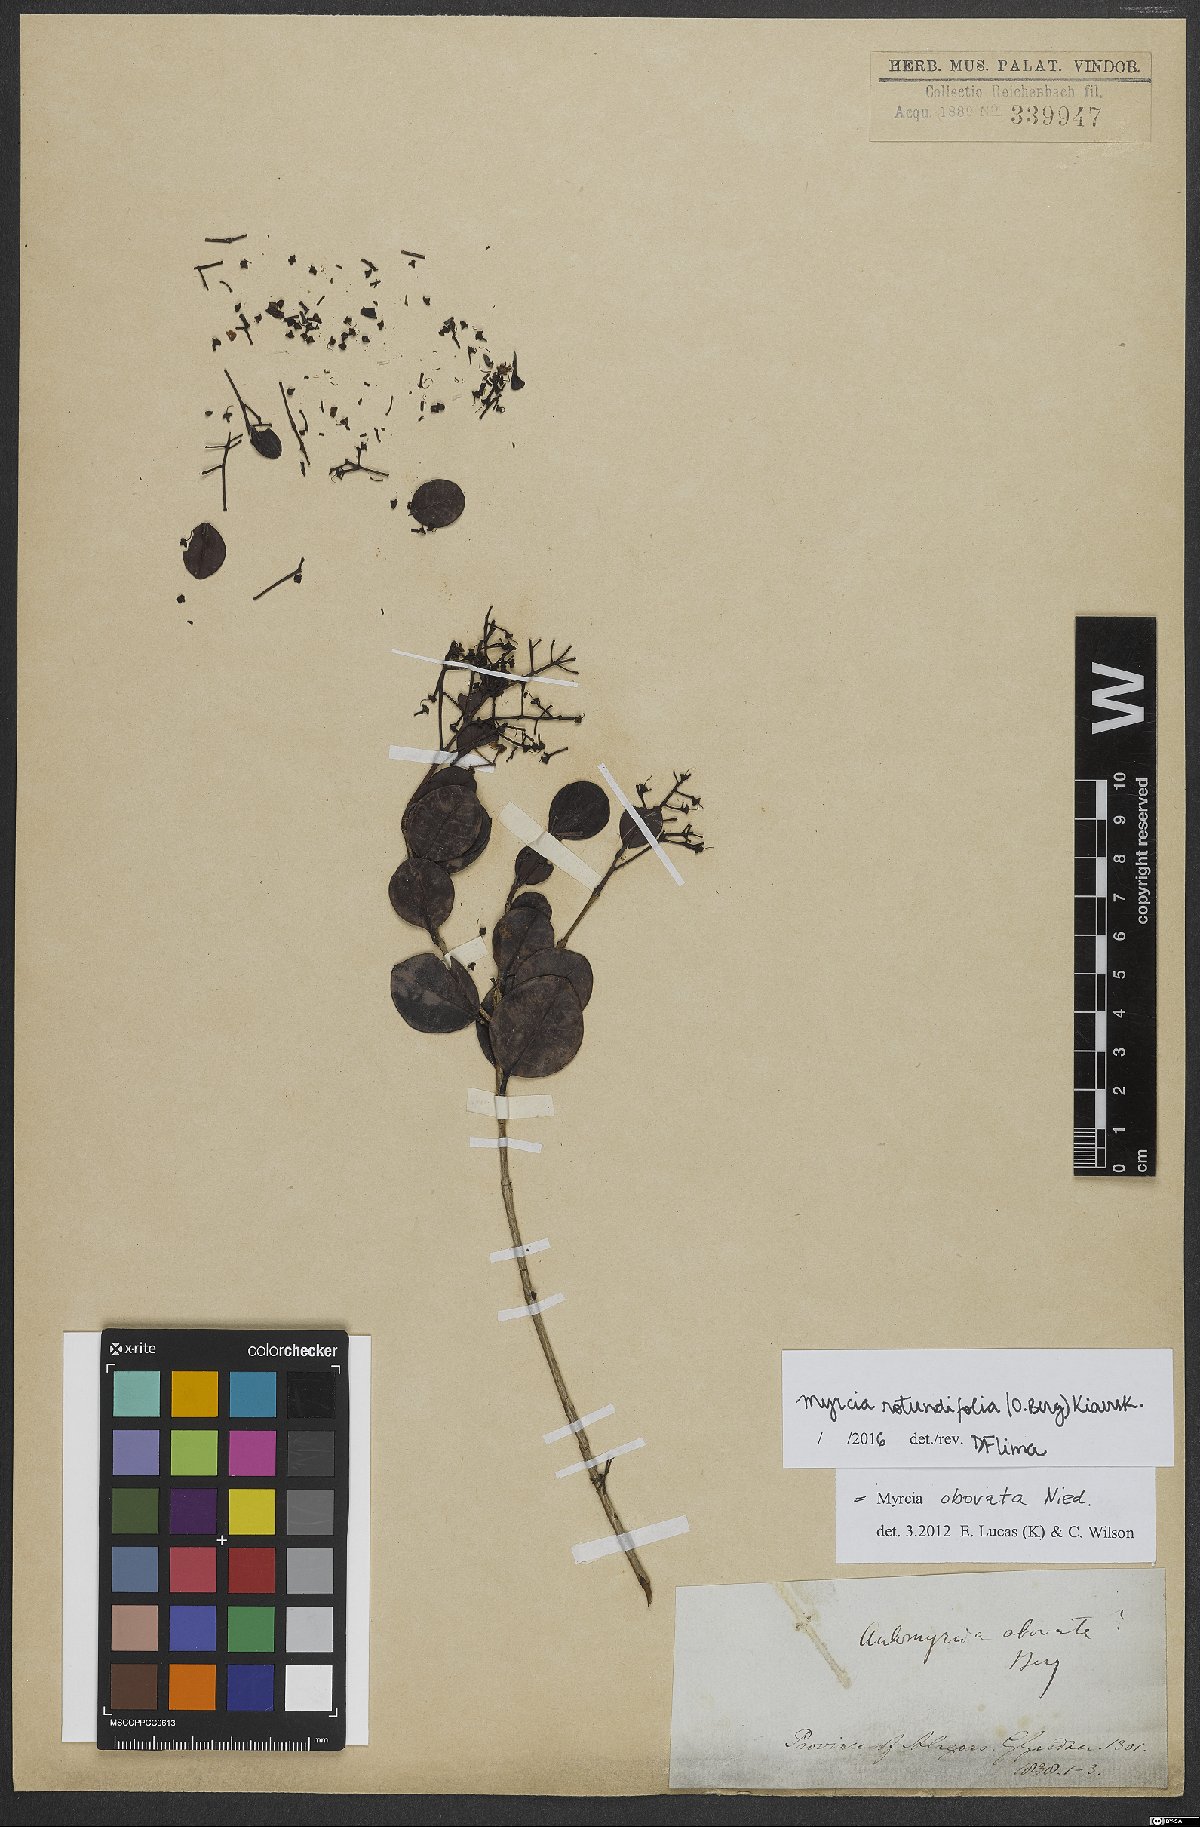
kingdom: Plantae
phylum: Tracheophyta
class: Magnoliopsida
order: Myrtales
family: Myrtaceae
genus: Myrcia
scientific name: Myrcia rotundifolia
